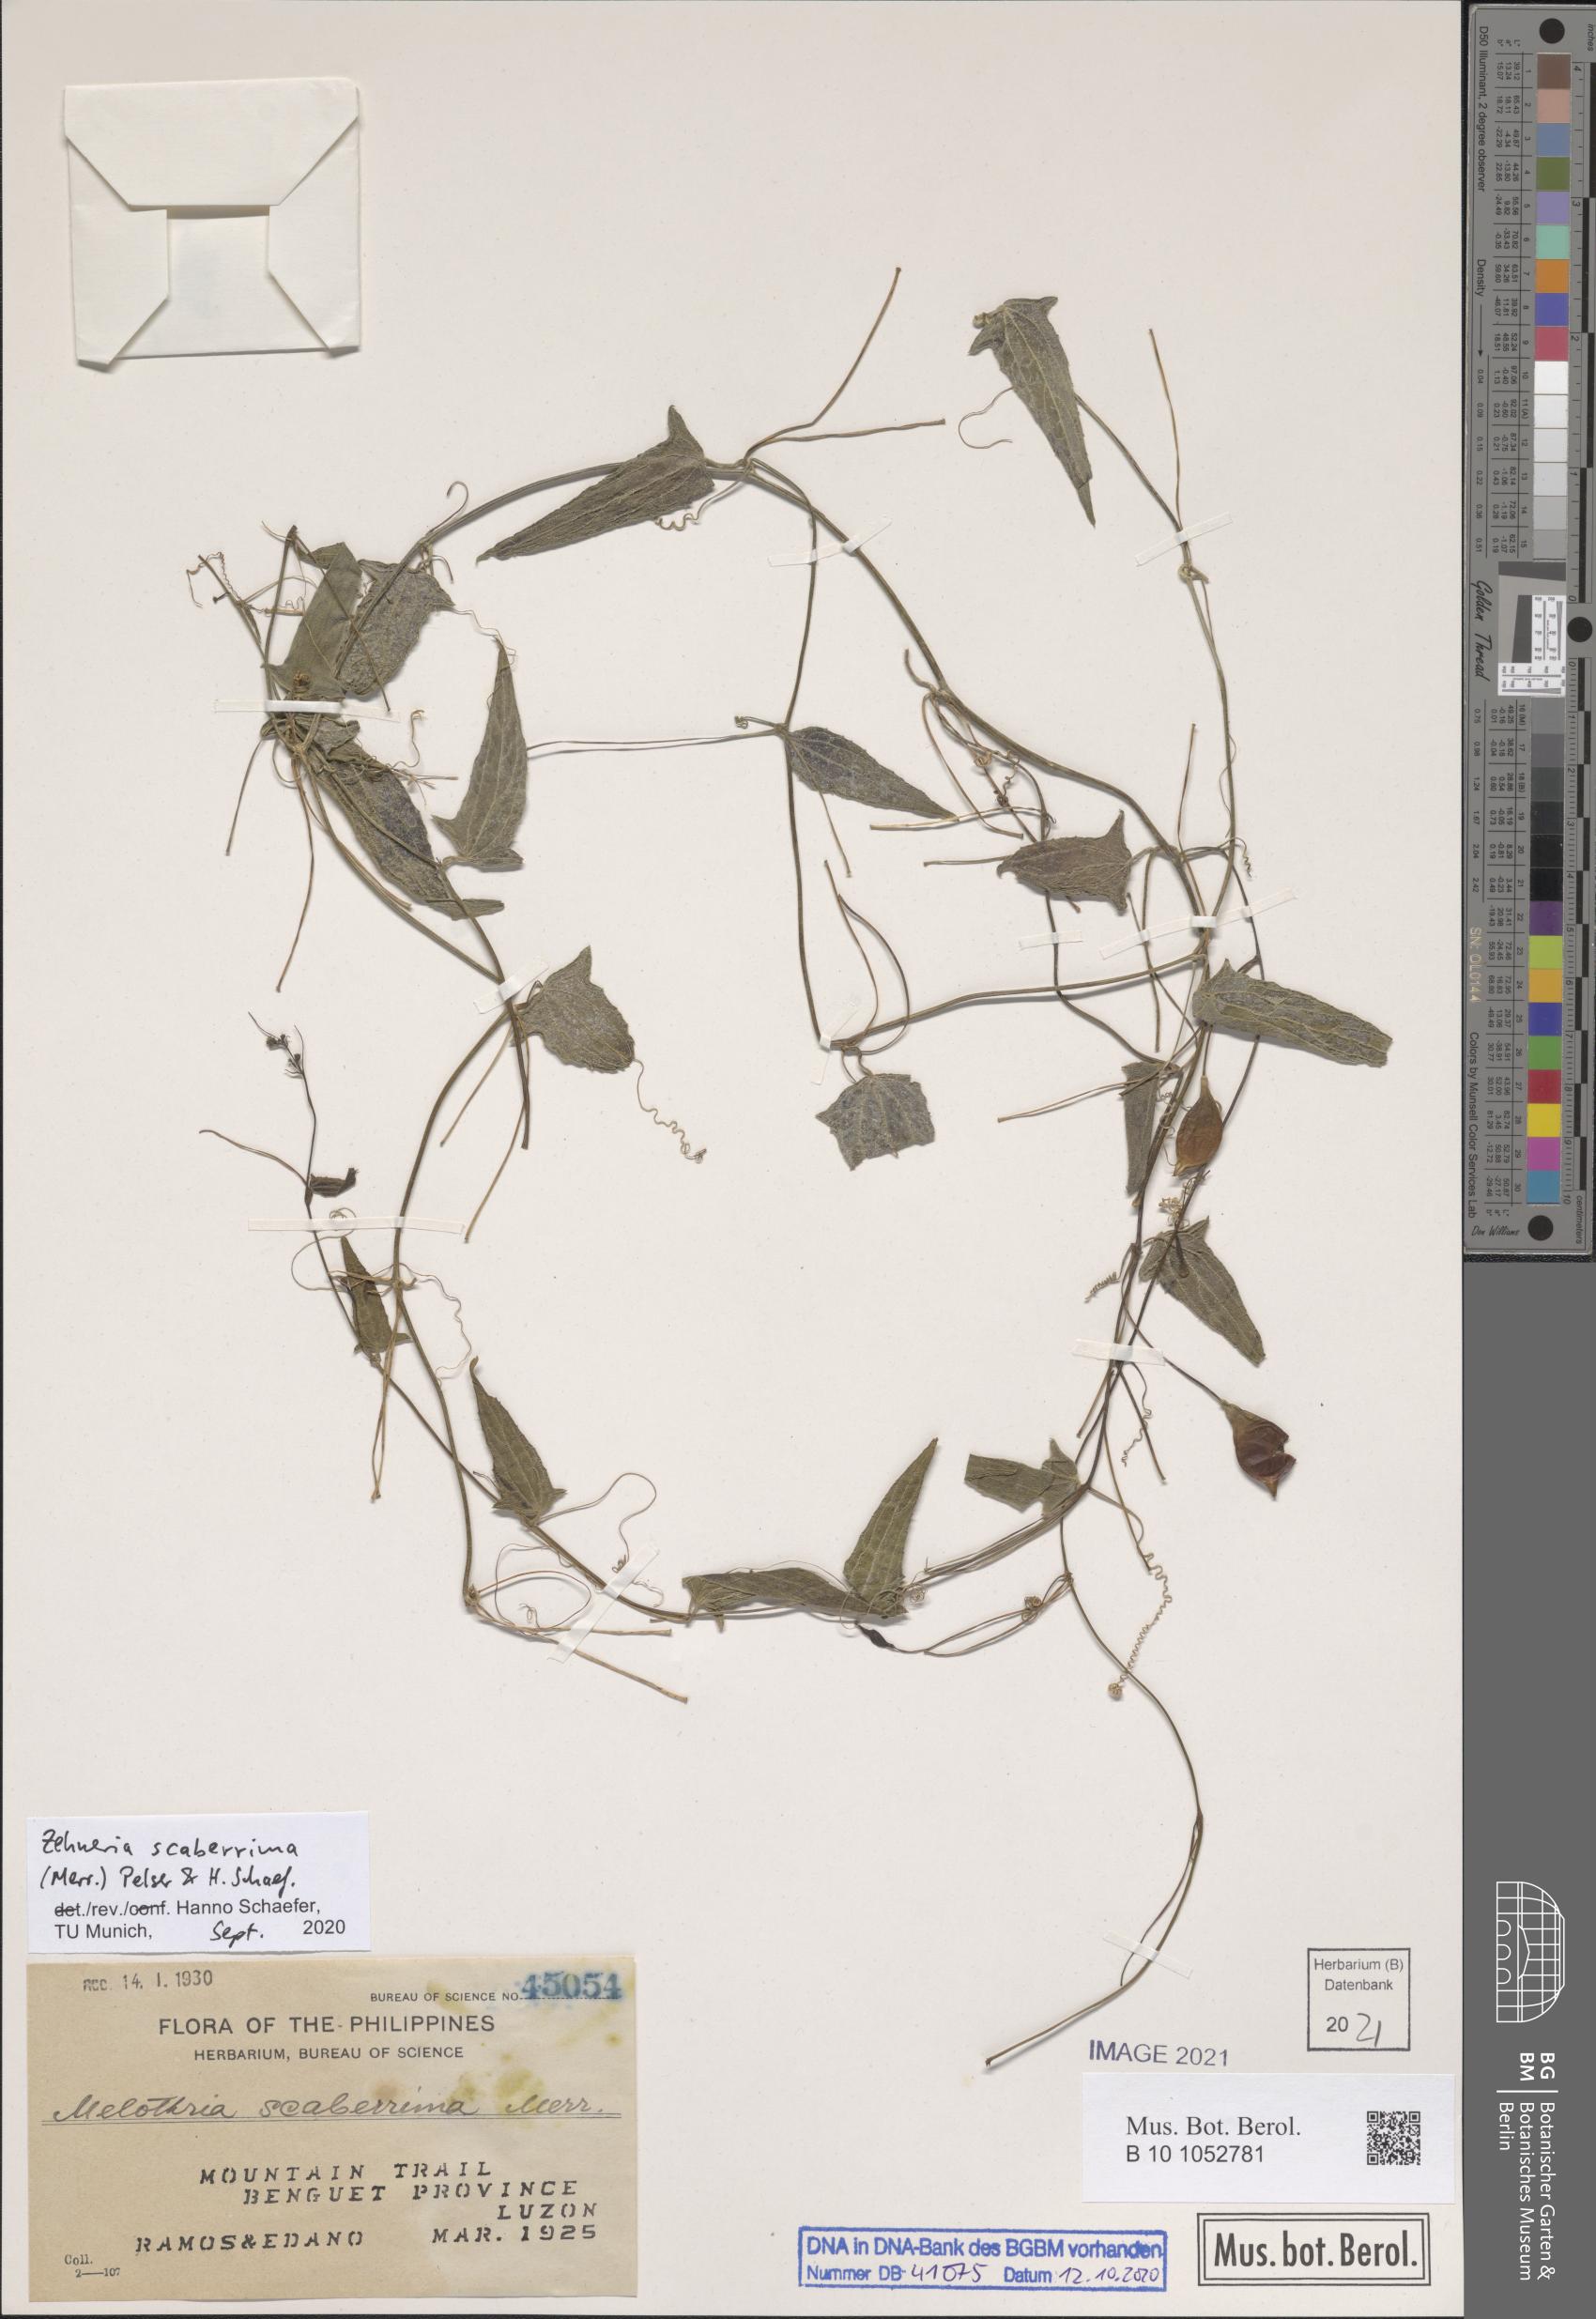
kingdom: Plantae
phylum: Tracheophyta
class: Magnoliopsida
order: Cucurbitales
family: Cucurbitaceae
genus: Zehneria
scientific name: Zehneria scaberrima
